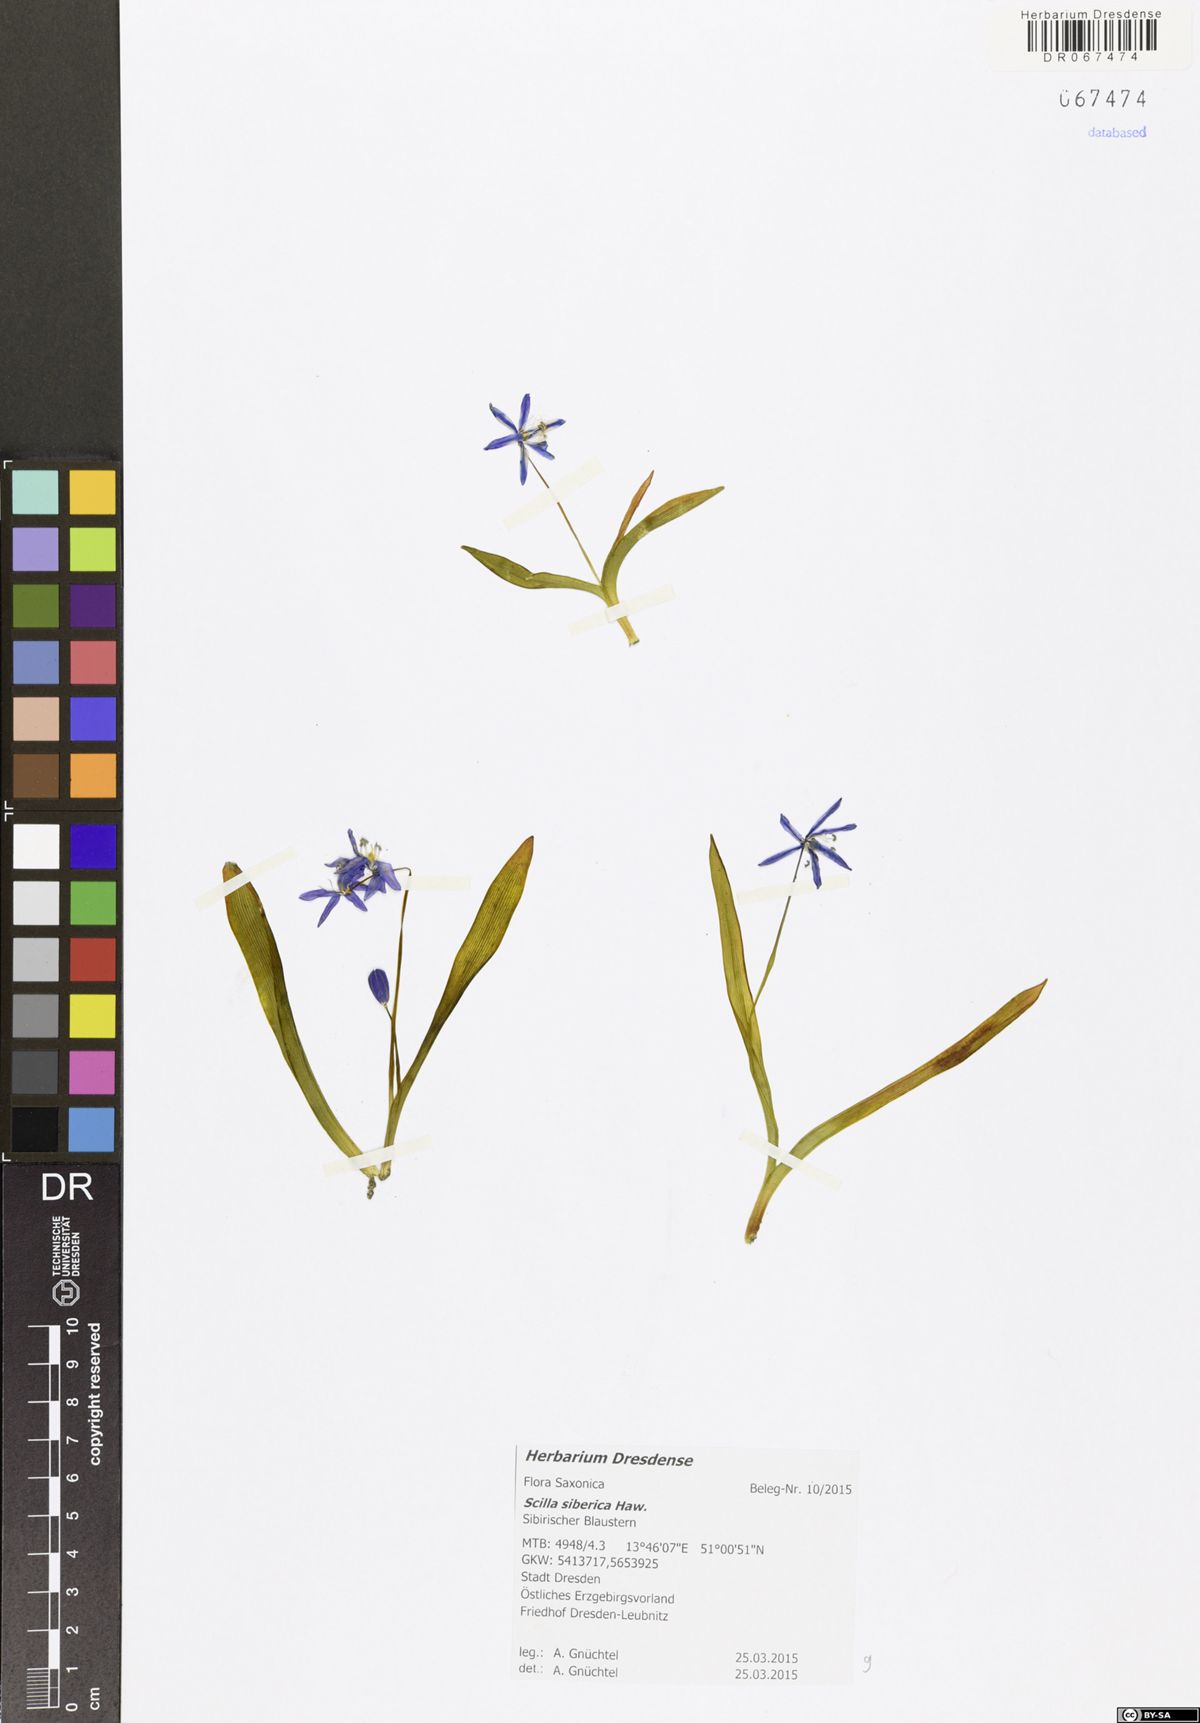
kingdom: Plantae
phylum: Tracheophyta
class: Liliopsida
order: Asparagales
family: Asparagaceae
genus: Scilla
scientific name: Scilla siberica
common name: Siberian squill
